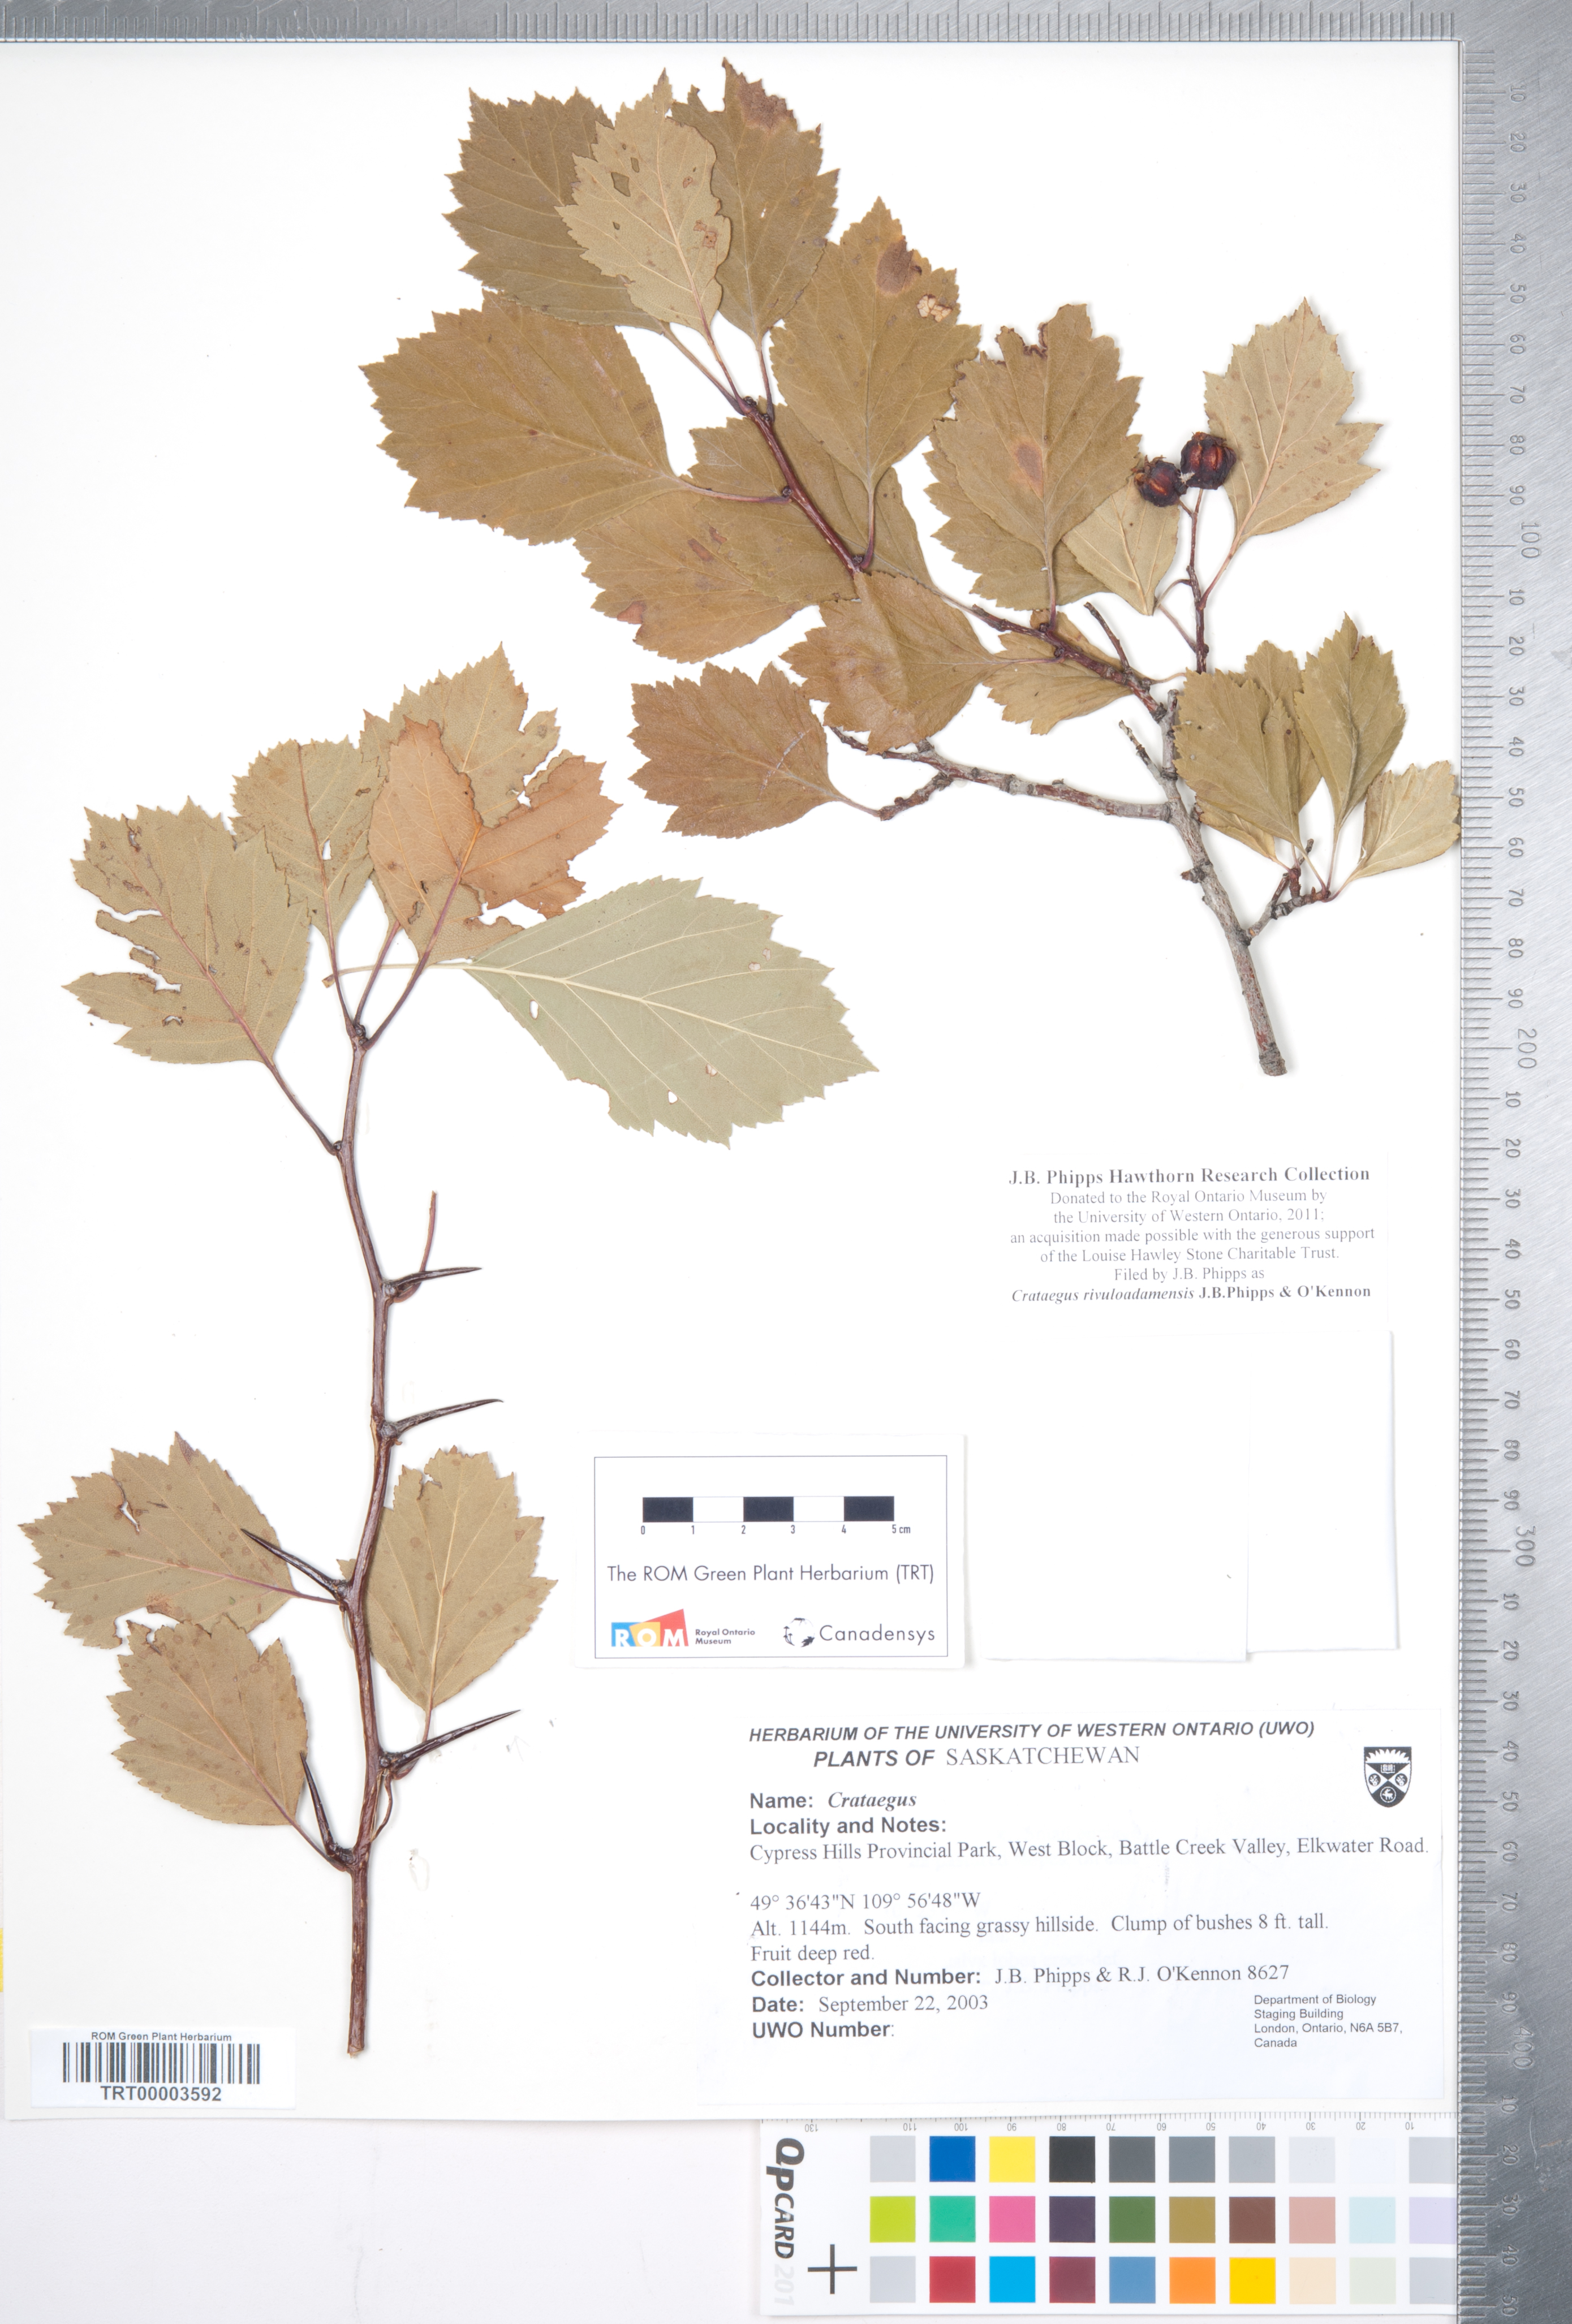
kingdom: Plantae
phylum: Tracheophyta
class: Magnoliopsida
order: Rosales
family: Rosaceae
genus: Crataegus
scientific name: Crataegus rivuloadamensis
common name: Adams creek hawthorn
